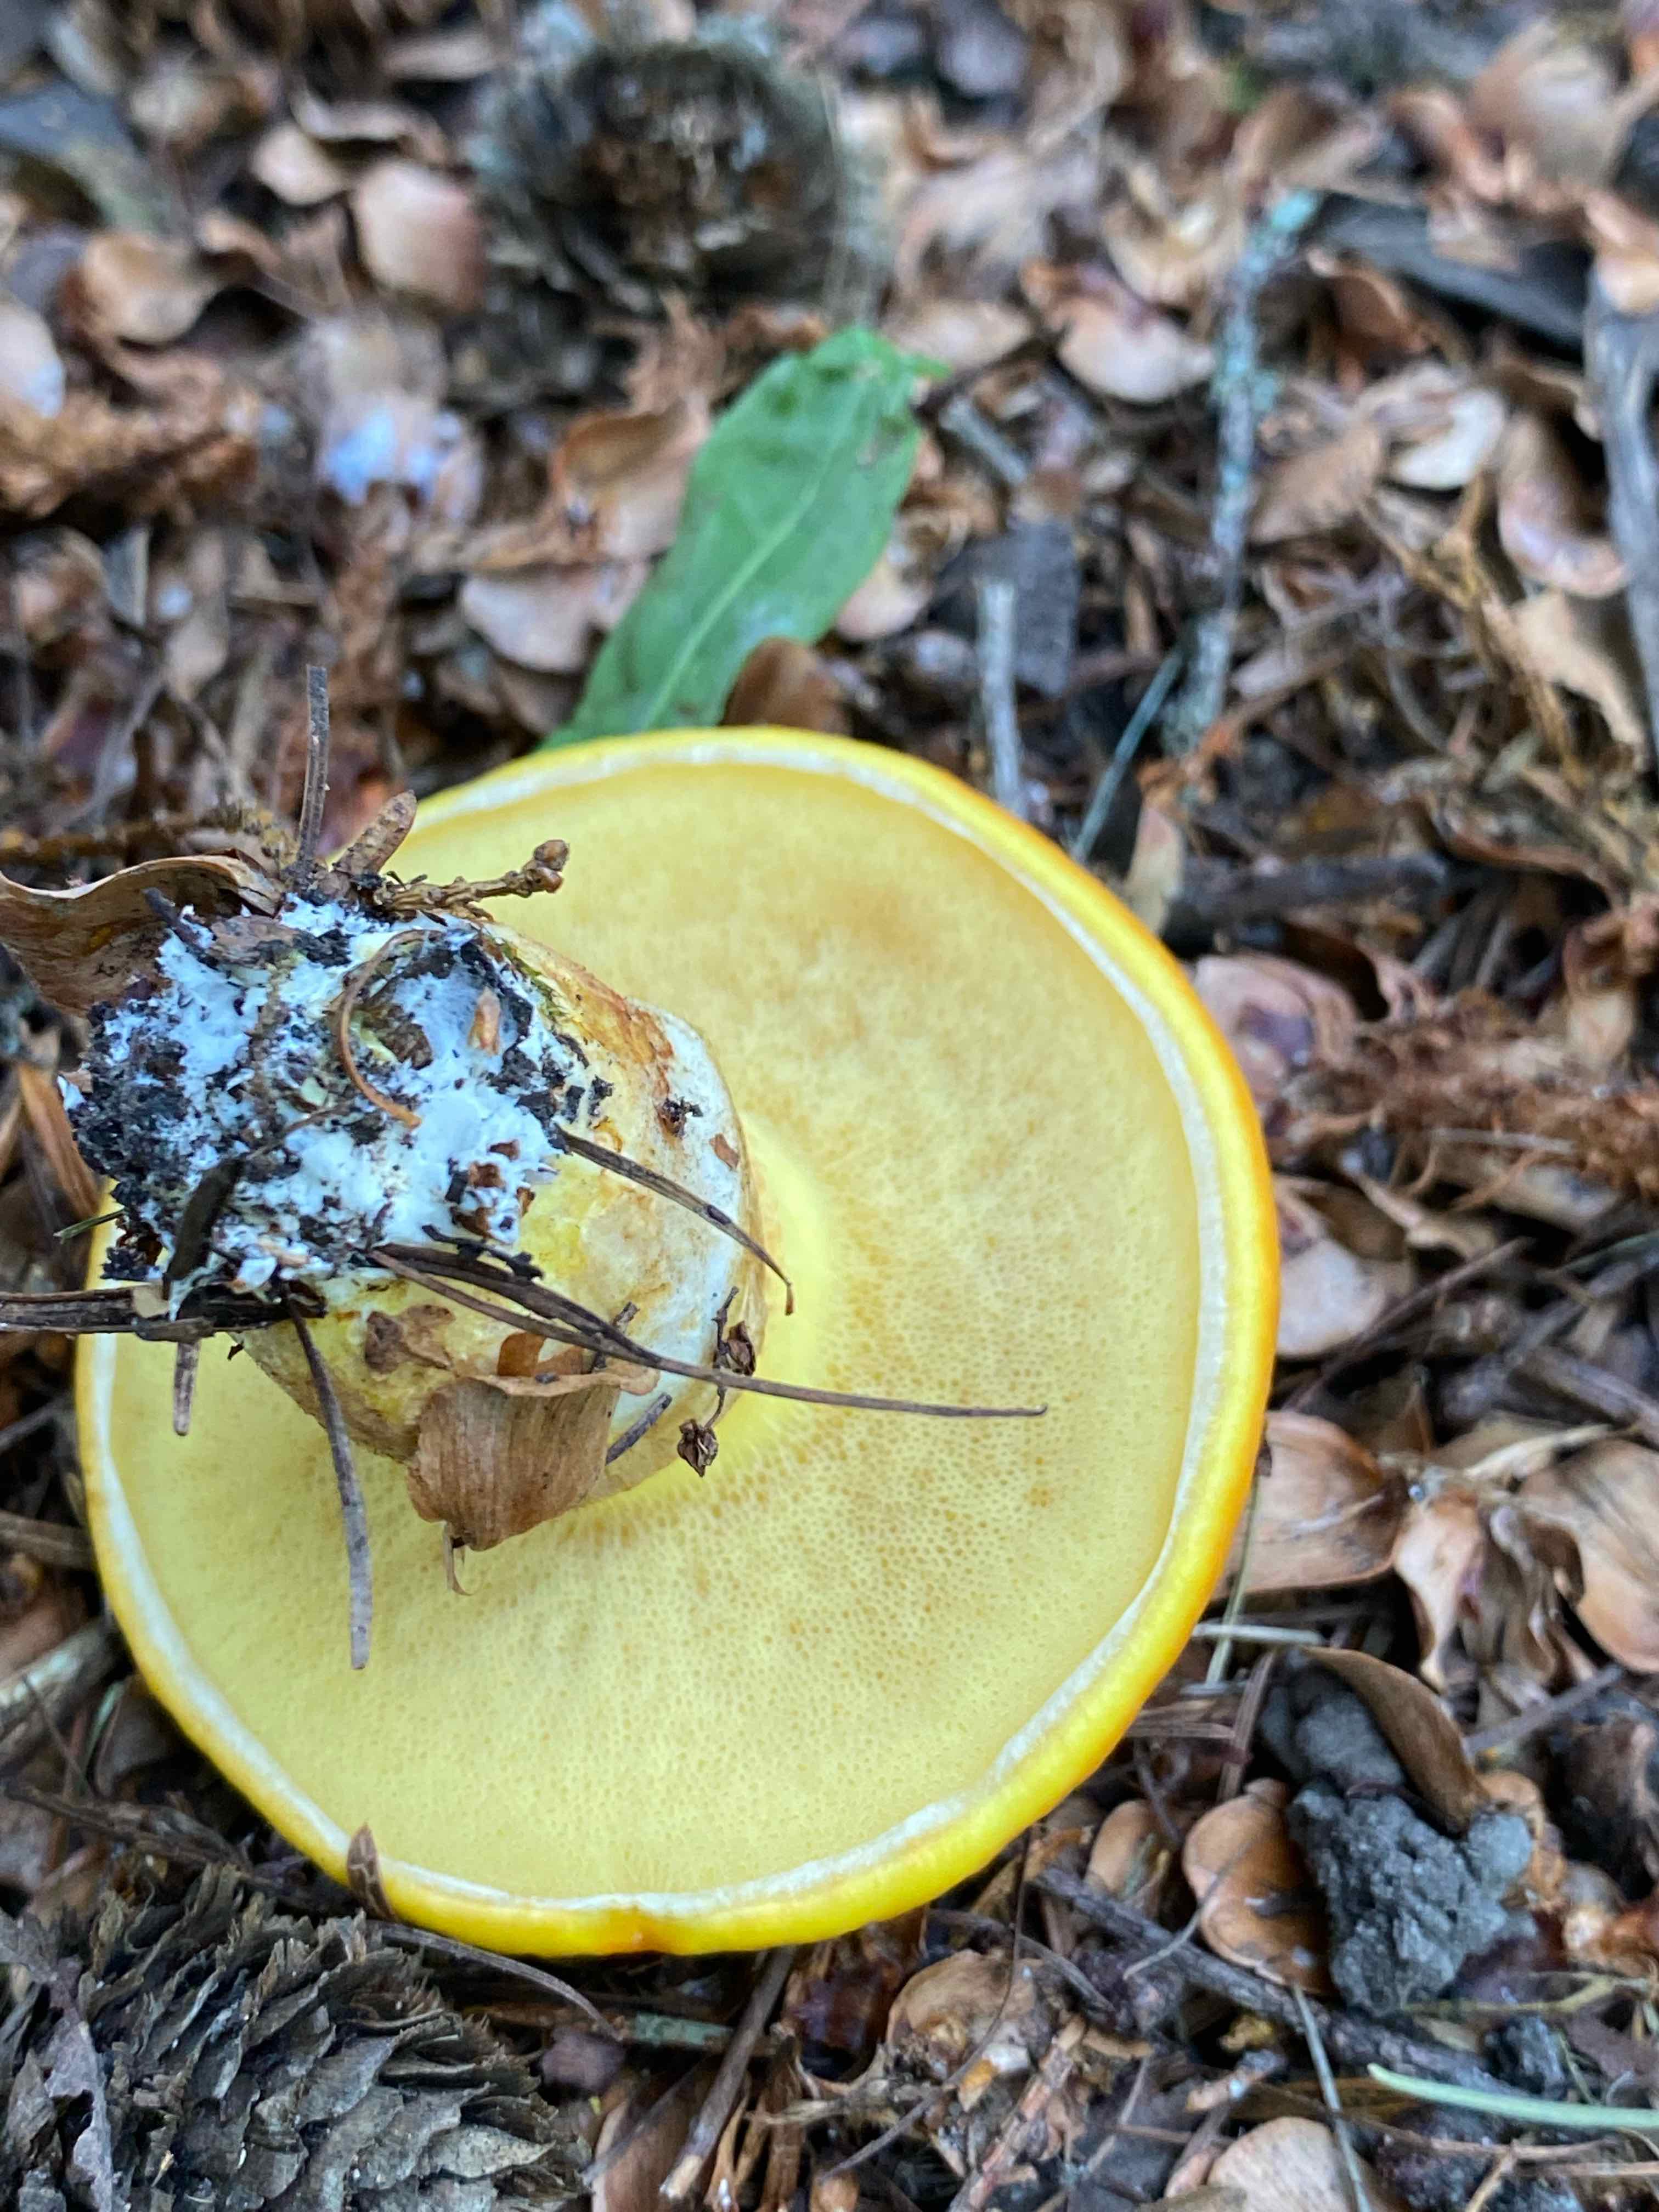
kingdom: Fungi
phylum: Basidiomycota
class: Agaricomycetes
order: Boletales
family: Suillaceae
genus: Suillus
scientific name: Suillus grevillei
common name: lærke-slimrørhat
